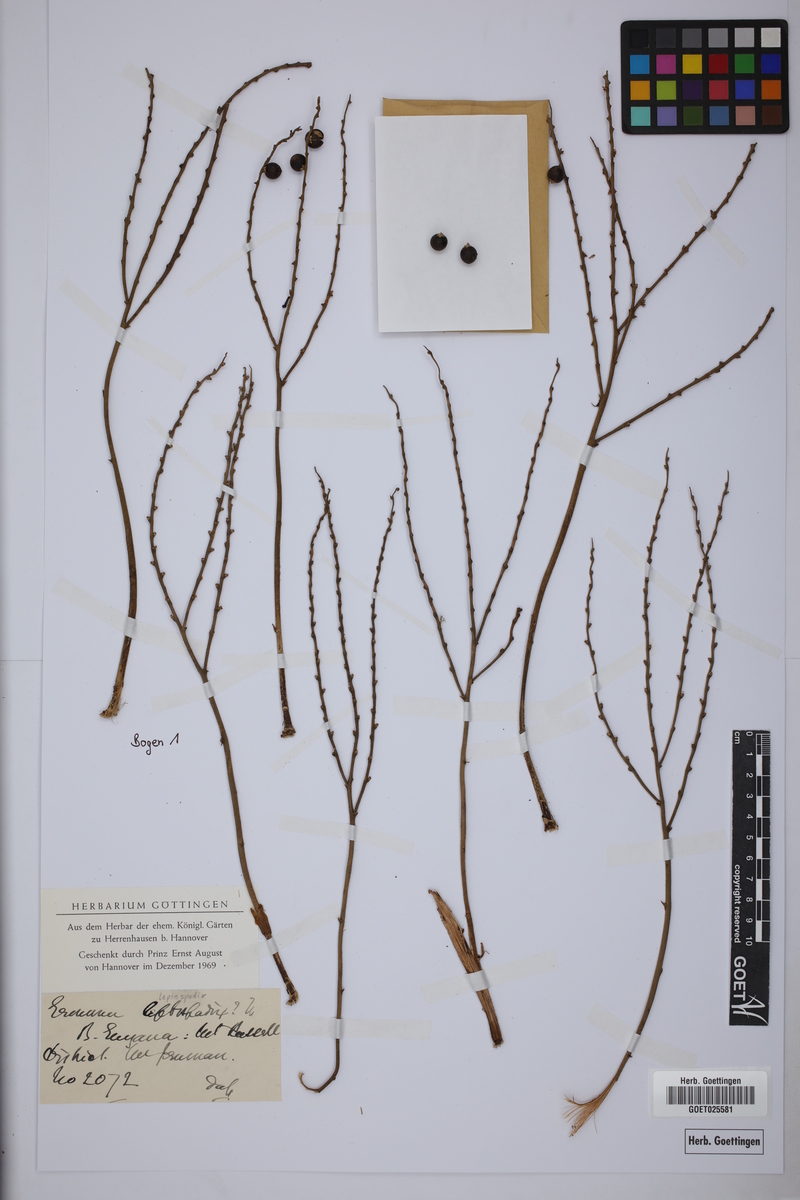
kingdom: Plantae
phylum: Tracheophyta
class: Liliopsida
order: Arecales
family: Arecaceae
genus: Geonoma
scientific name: Geonoma leptospadix
